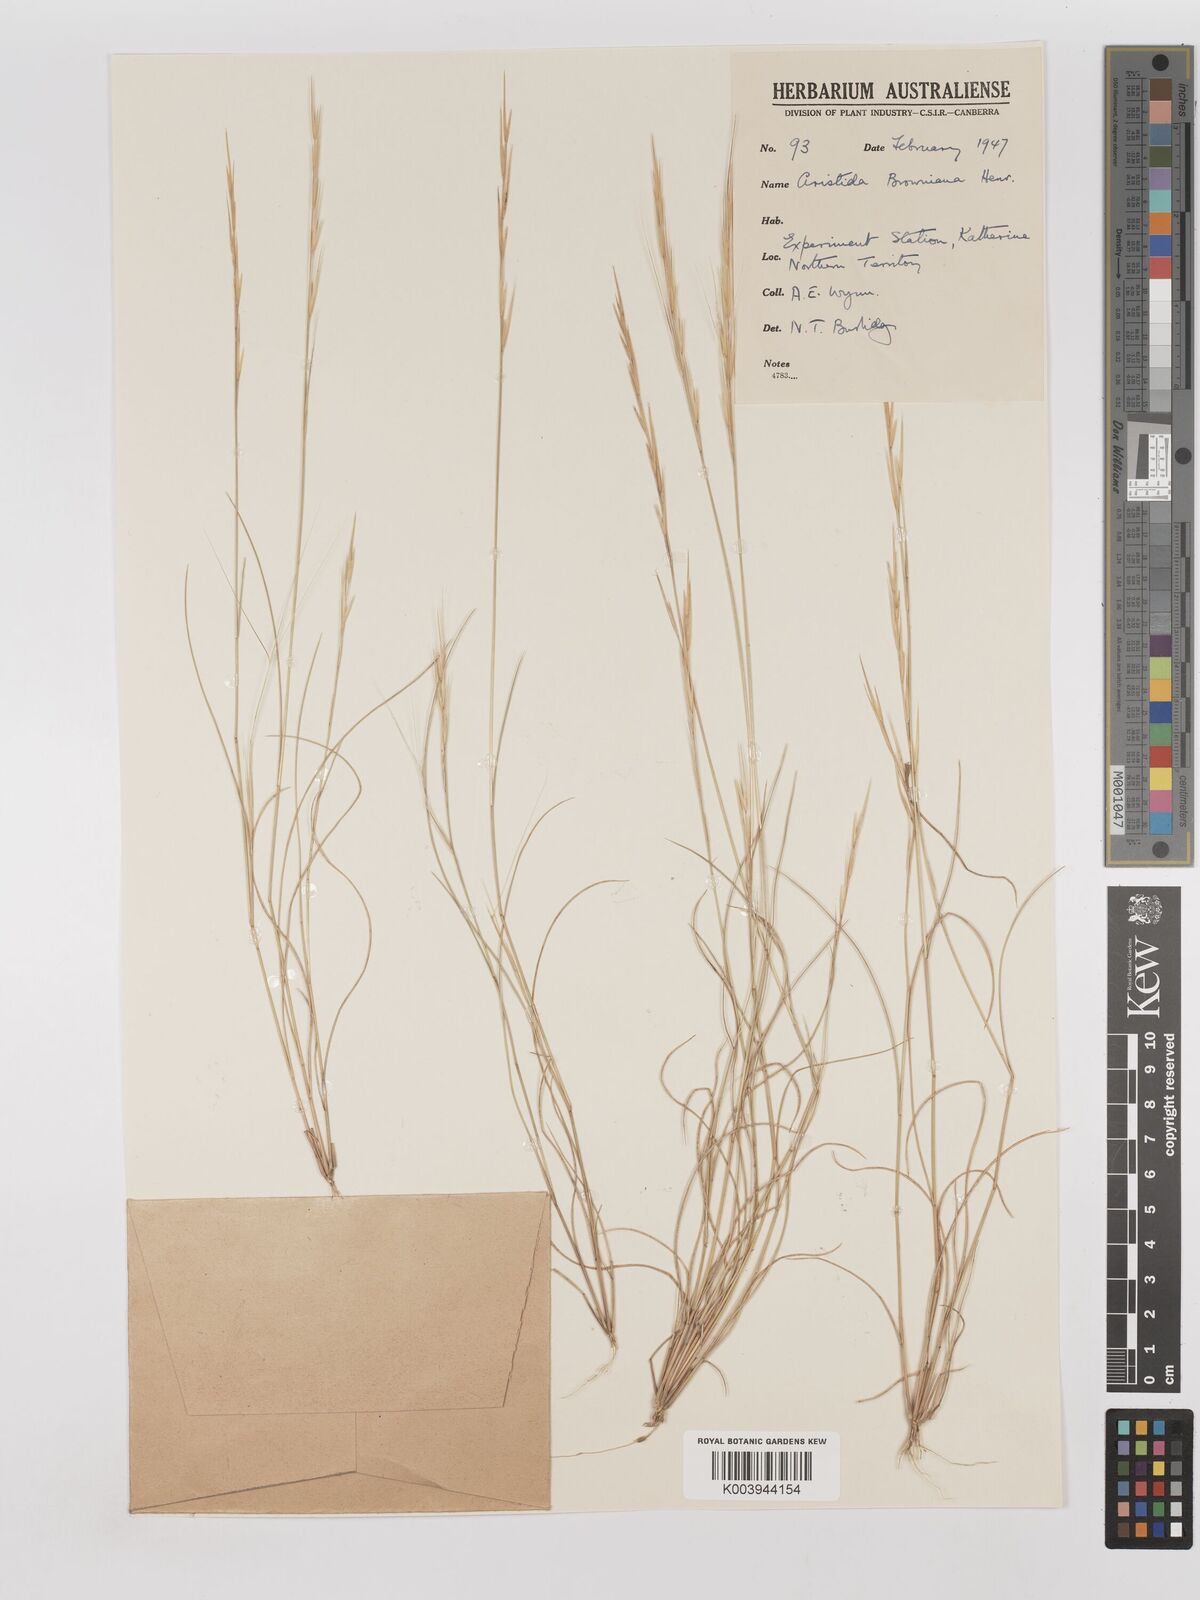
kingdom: Plantae
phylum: Tracheophyta
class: Liliopsida
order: Poales
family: Poaceae
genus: Aristida
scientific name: Aristida holathera
